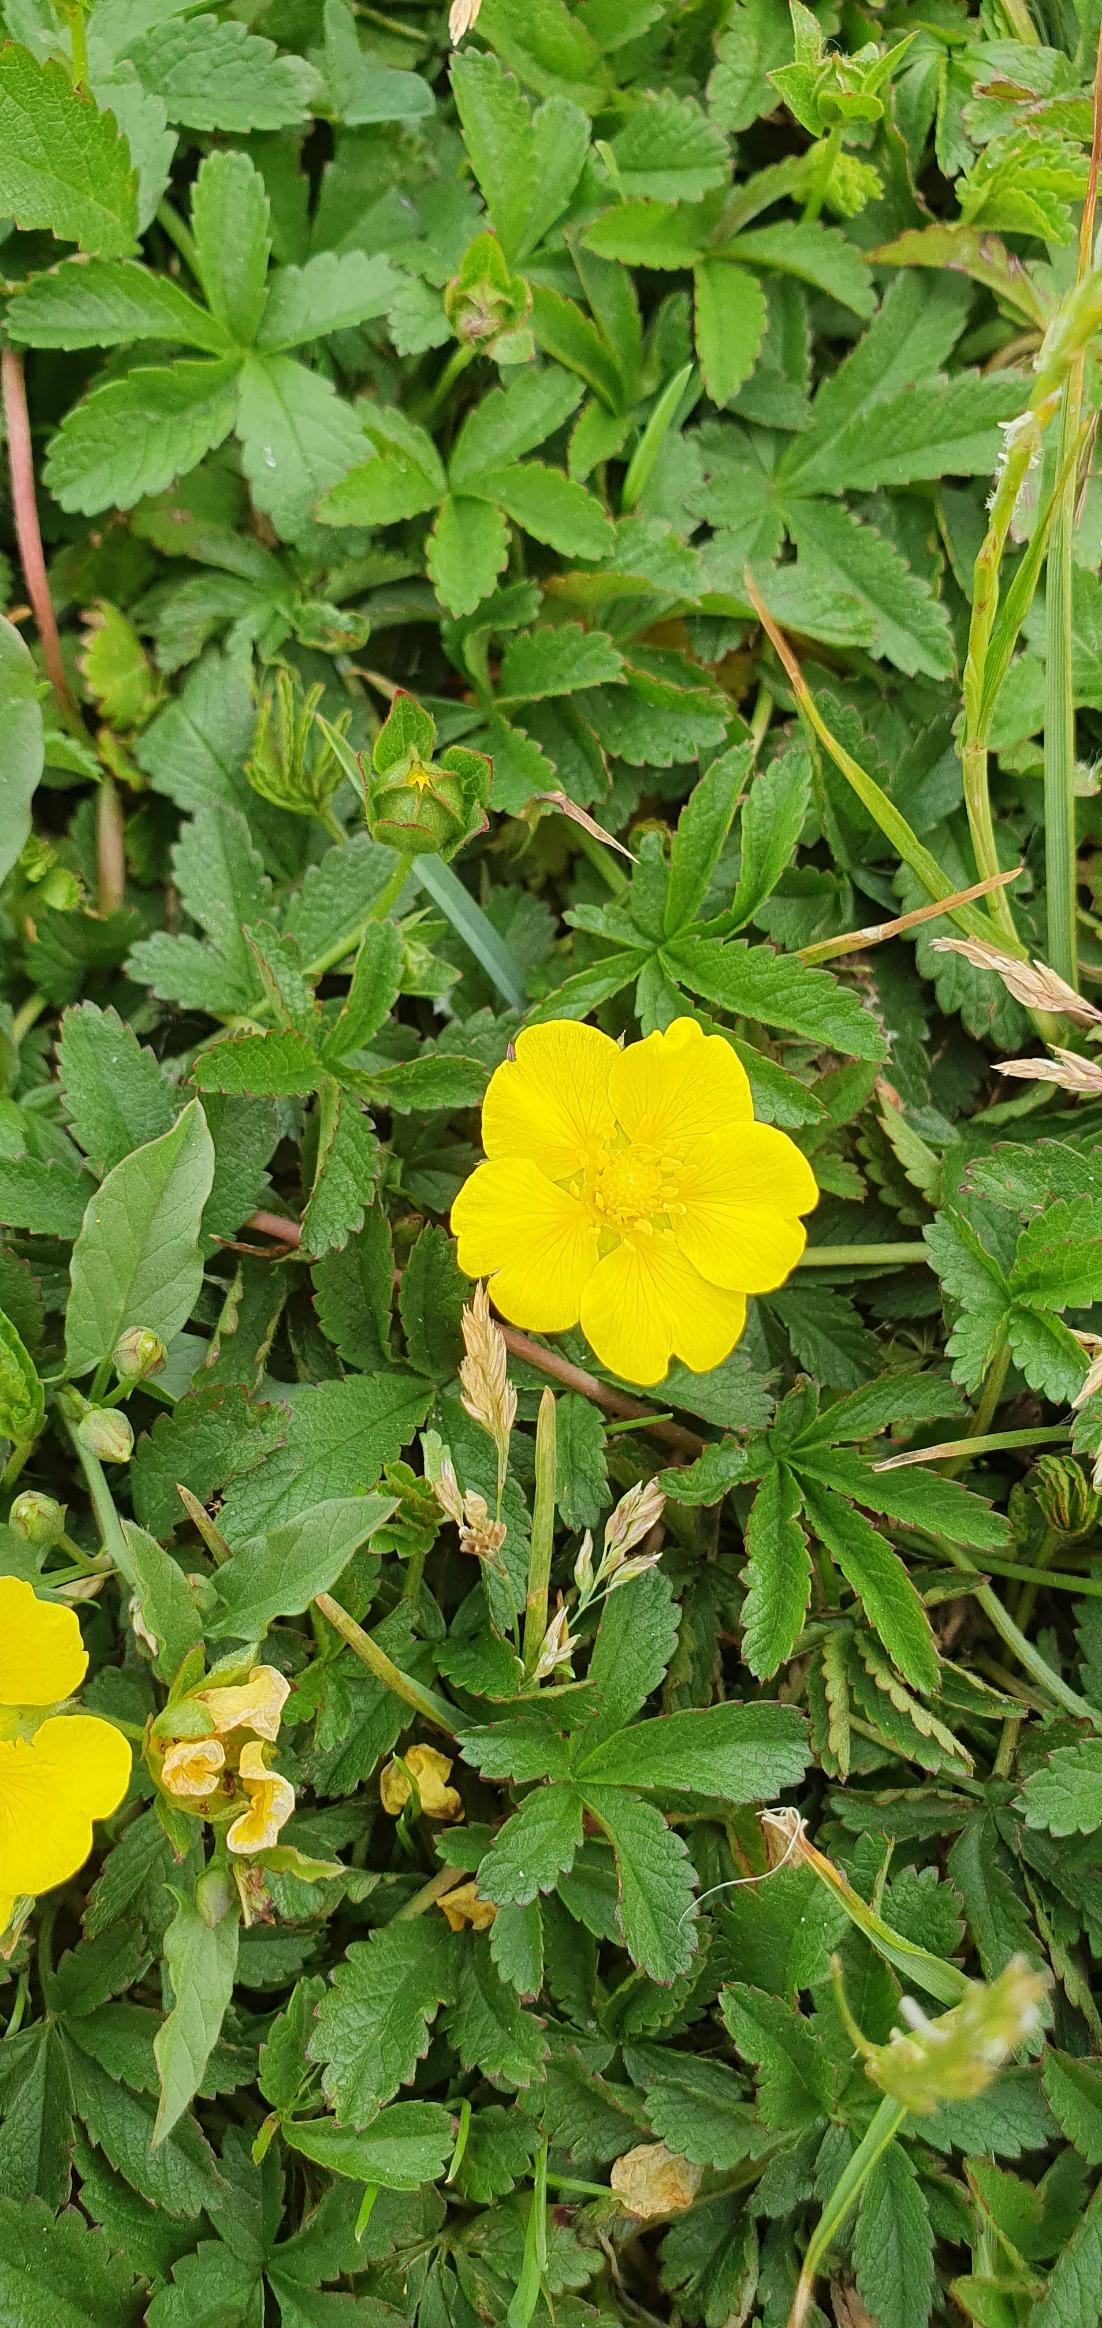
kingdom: Plantae
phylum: Tracheophyta
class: Magnoliopsida
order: Rosales
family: Rosaceae
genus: Potentilla
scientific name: Potentilla reptans
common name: Krybende potentil
